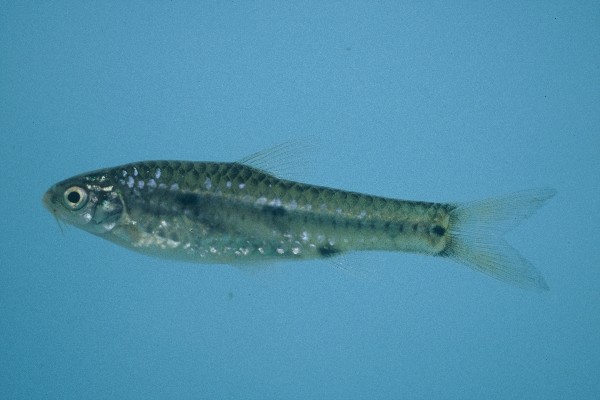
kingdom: Animalia
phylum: Chordata
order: Cypriniformes
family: Cyprinidae
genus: Enteromius
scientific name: Enteromius atkinsoni
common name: Dash-dot barb
